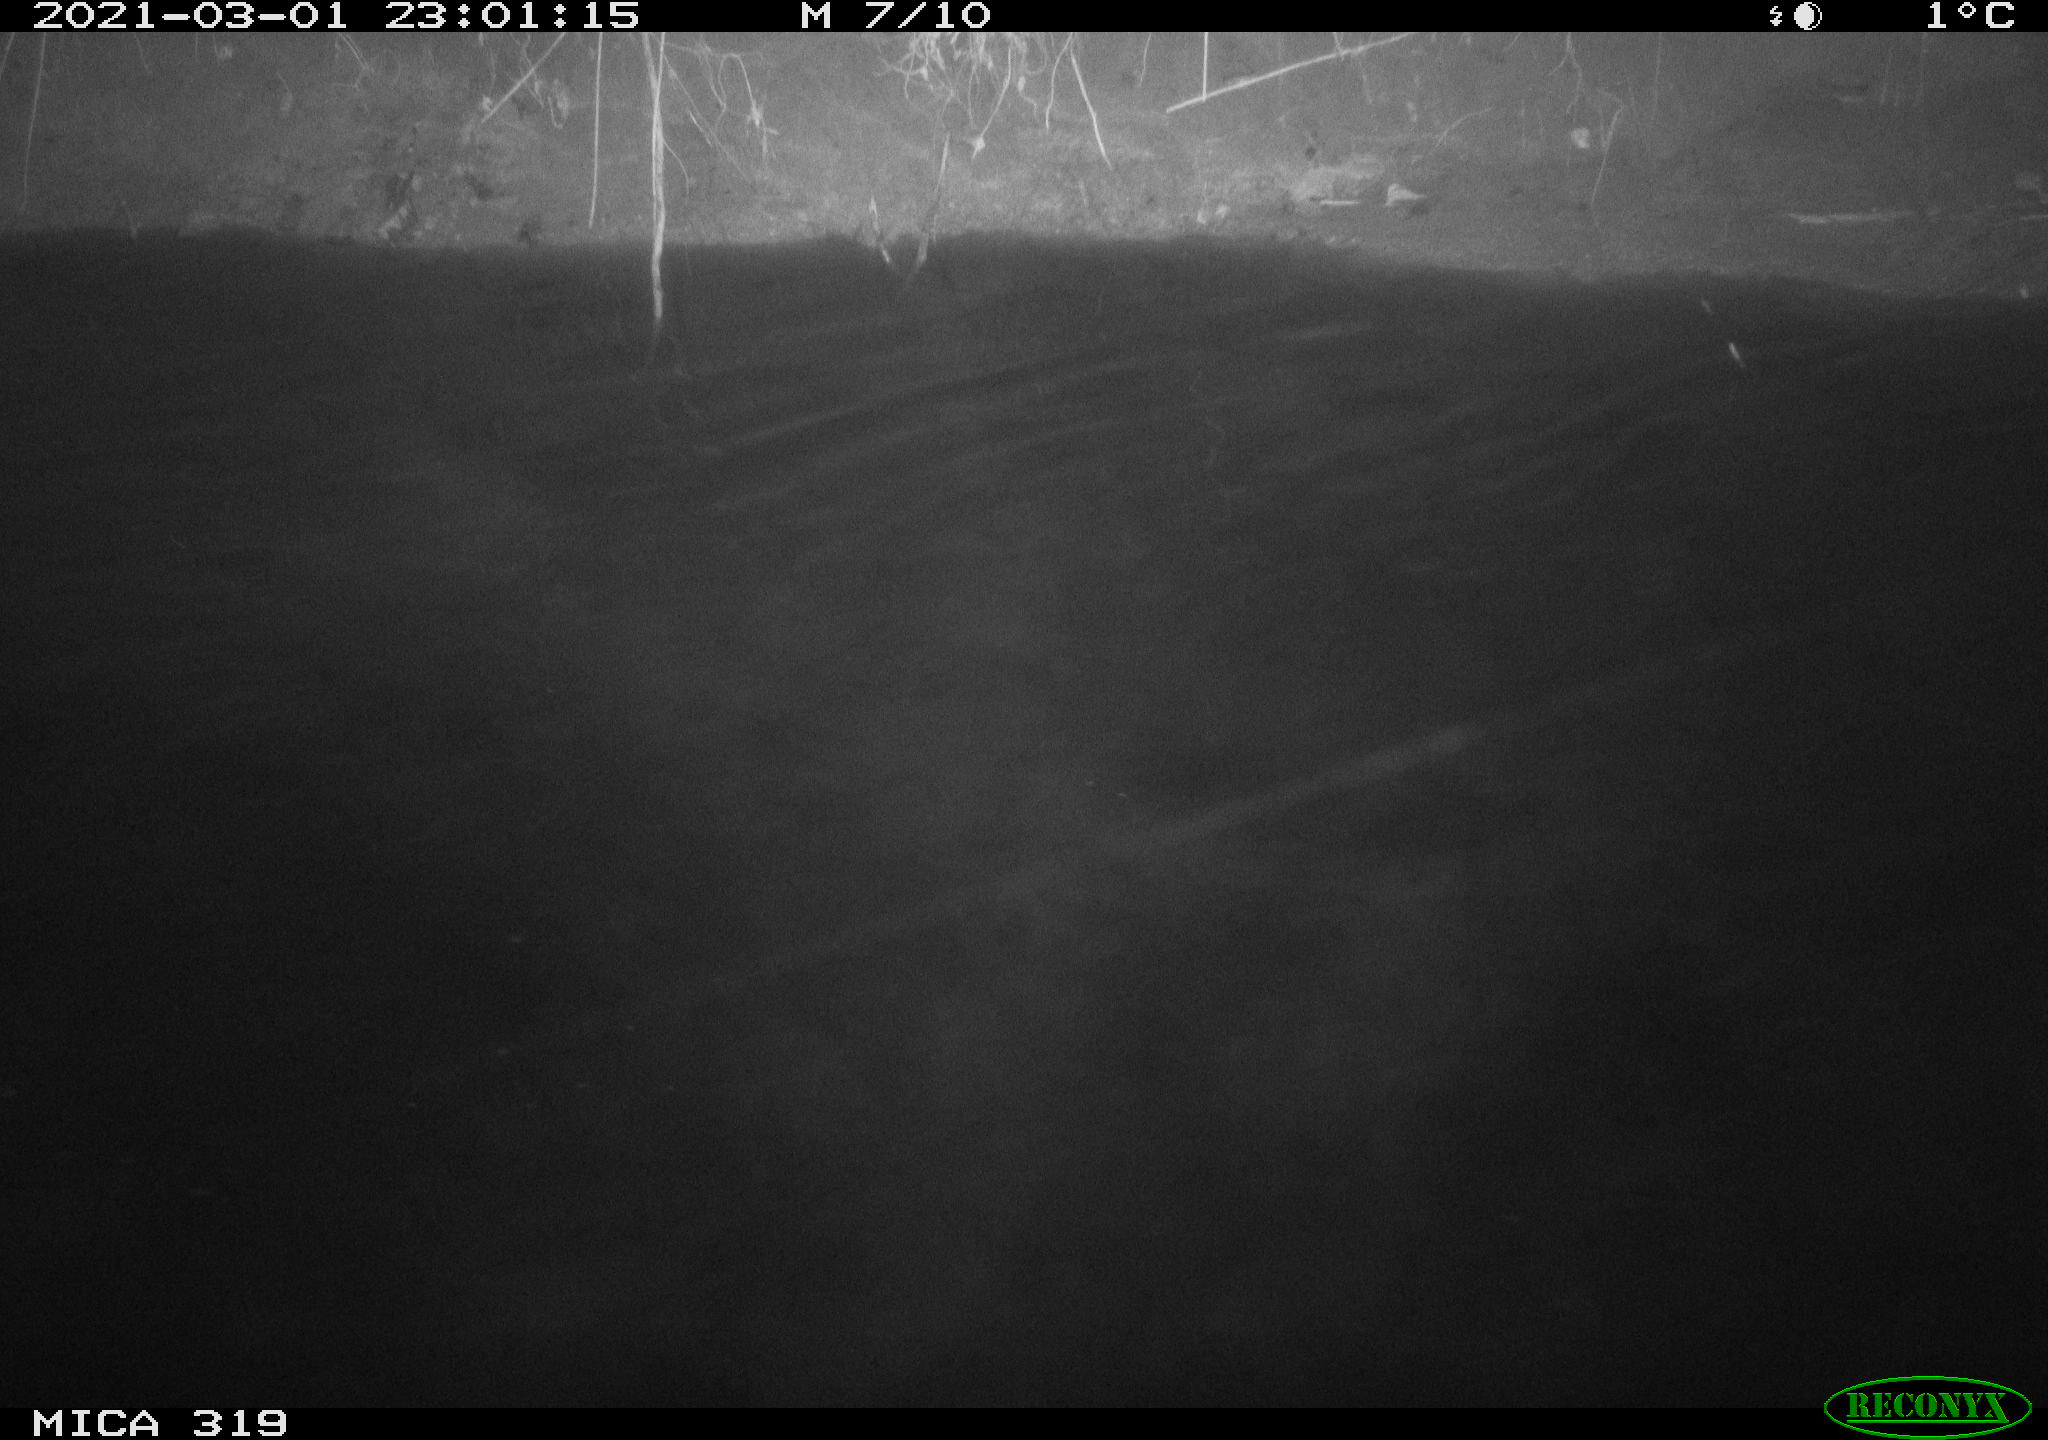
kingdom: Animalia
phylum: Chordata
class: Aves
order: Anseriformes
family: Anatidae
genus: Anas
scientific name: Anas platyrhynchos
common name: Mallard
